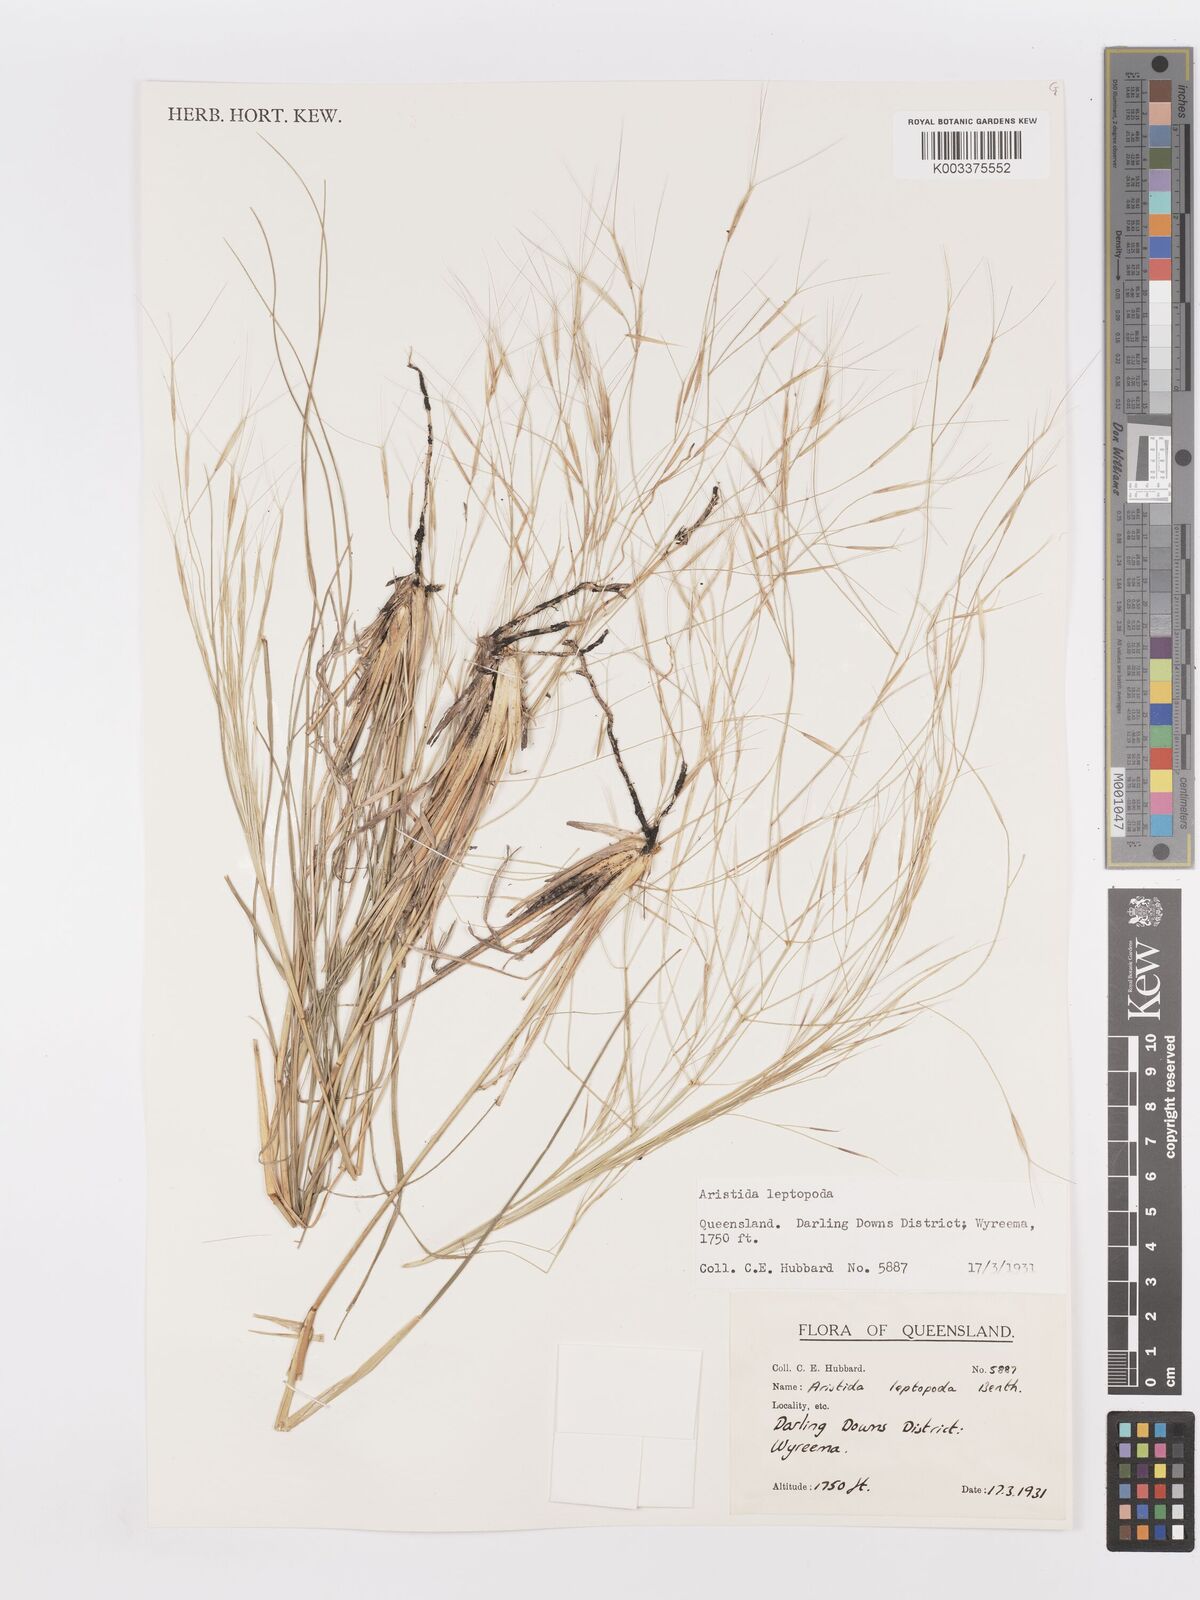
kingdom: Plantae
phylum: Tracheophyta
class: Liliopsida
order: Poales
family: Poaceae
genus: Aristida
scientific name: Aristida leptopoda
